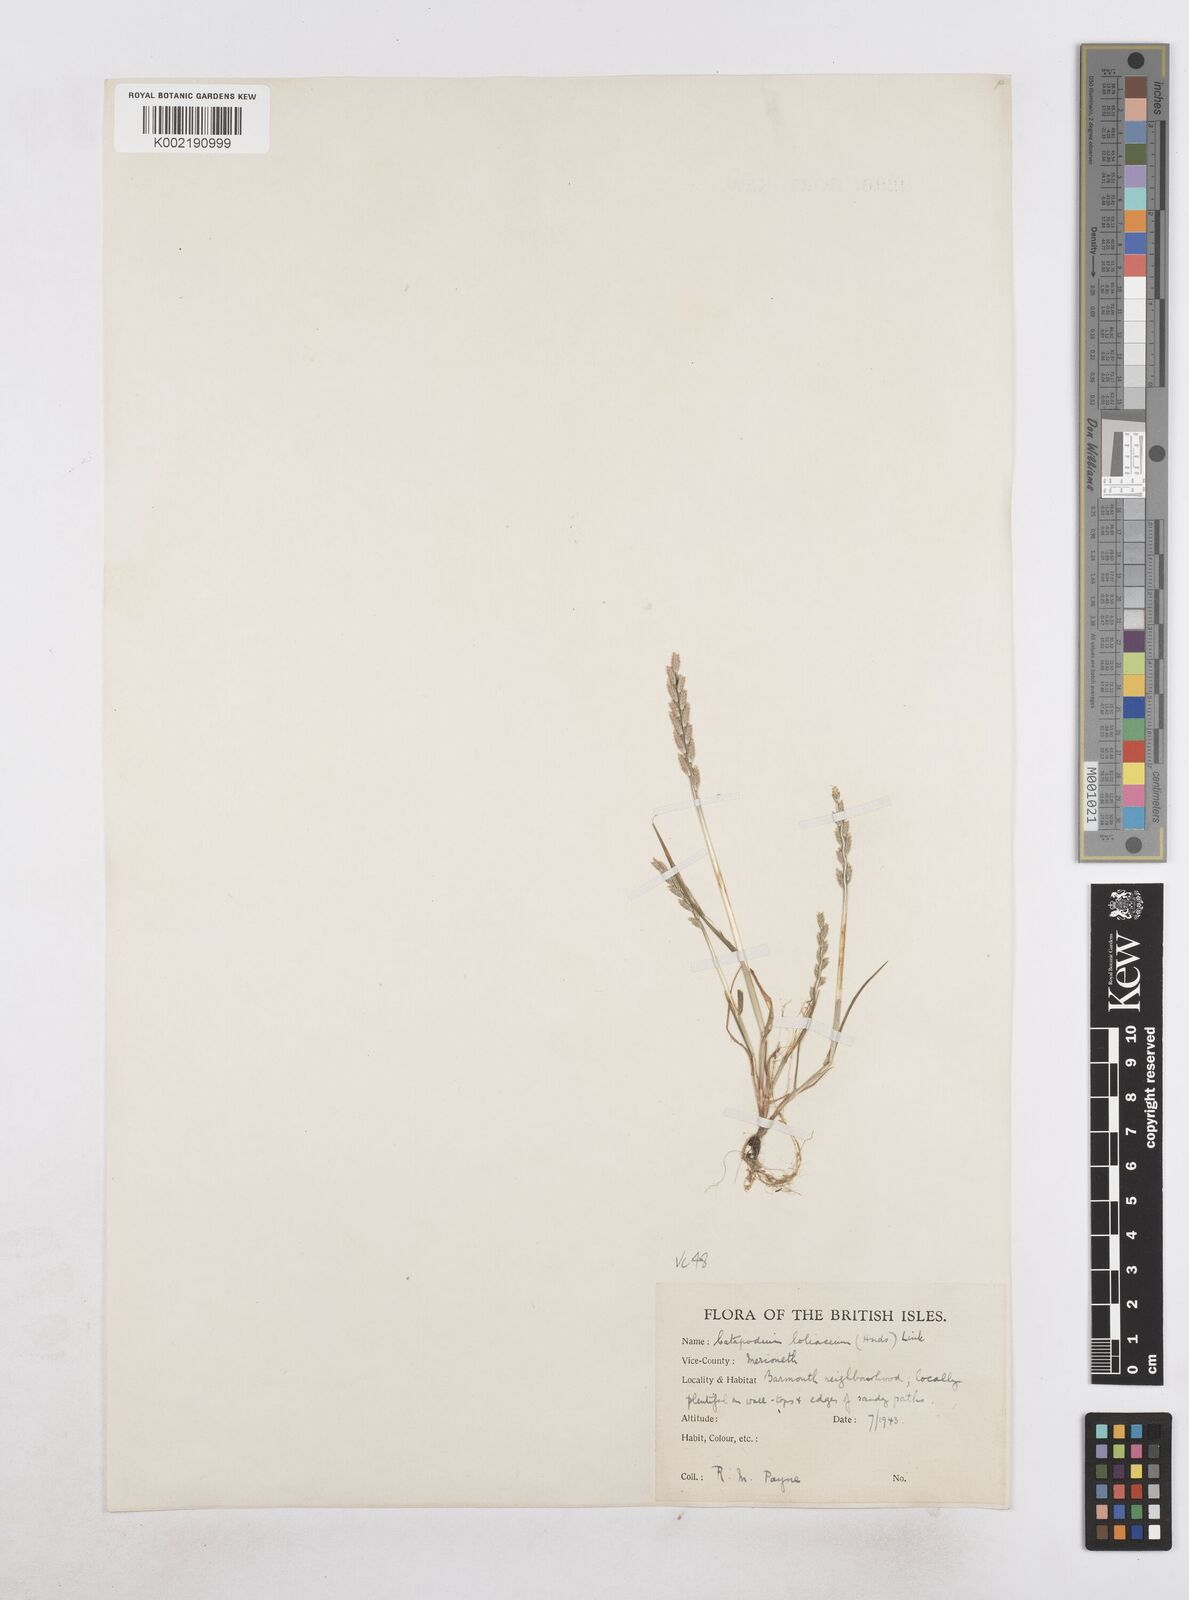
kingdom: Plantae
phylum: Tracheophyta
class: Liliopsida
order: Poales
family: Poaceae
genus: Catapodium
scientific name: Catapodium marinum
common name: Sea fern-grass
